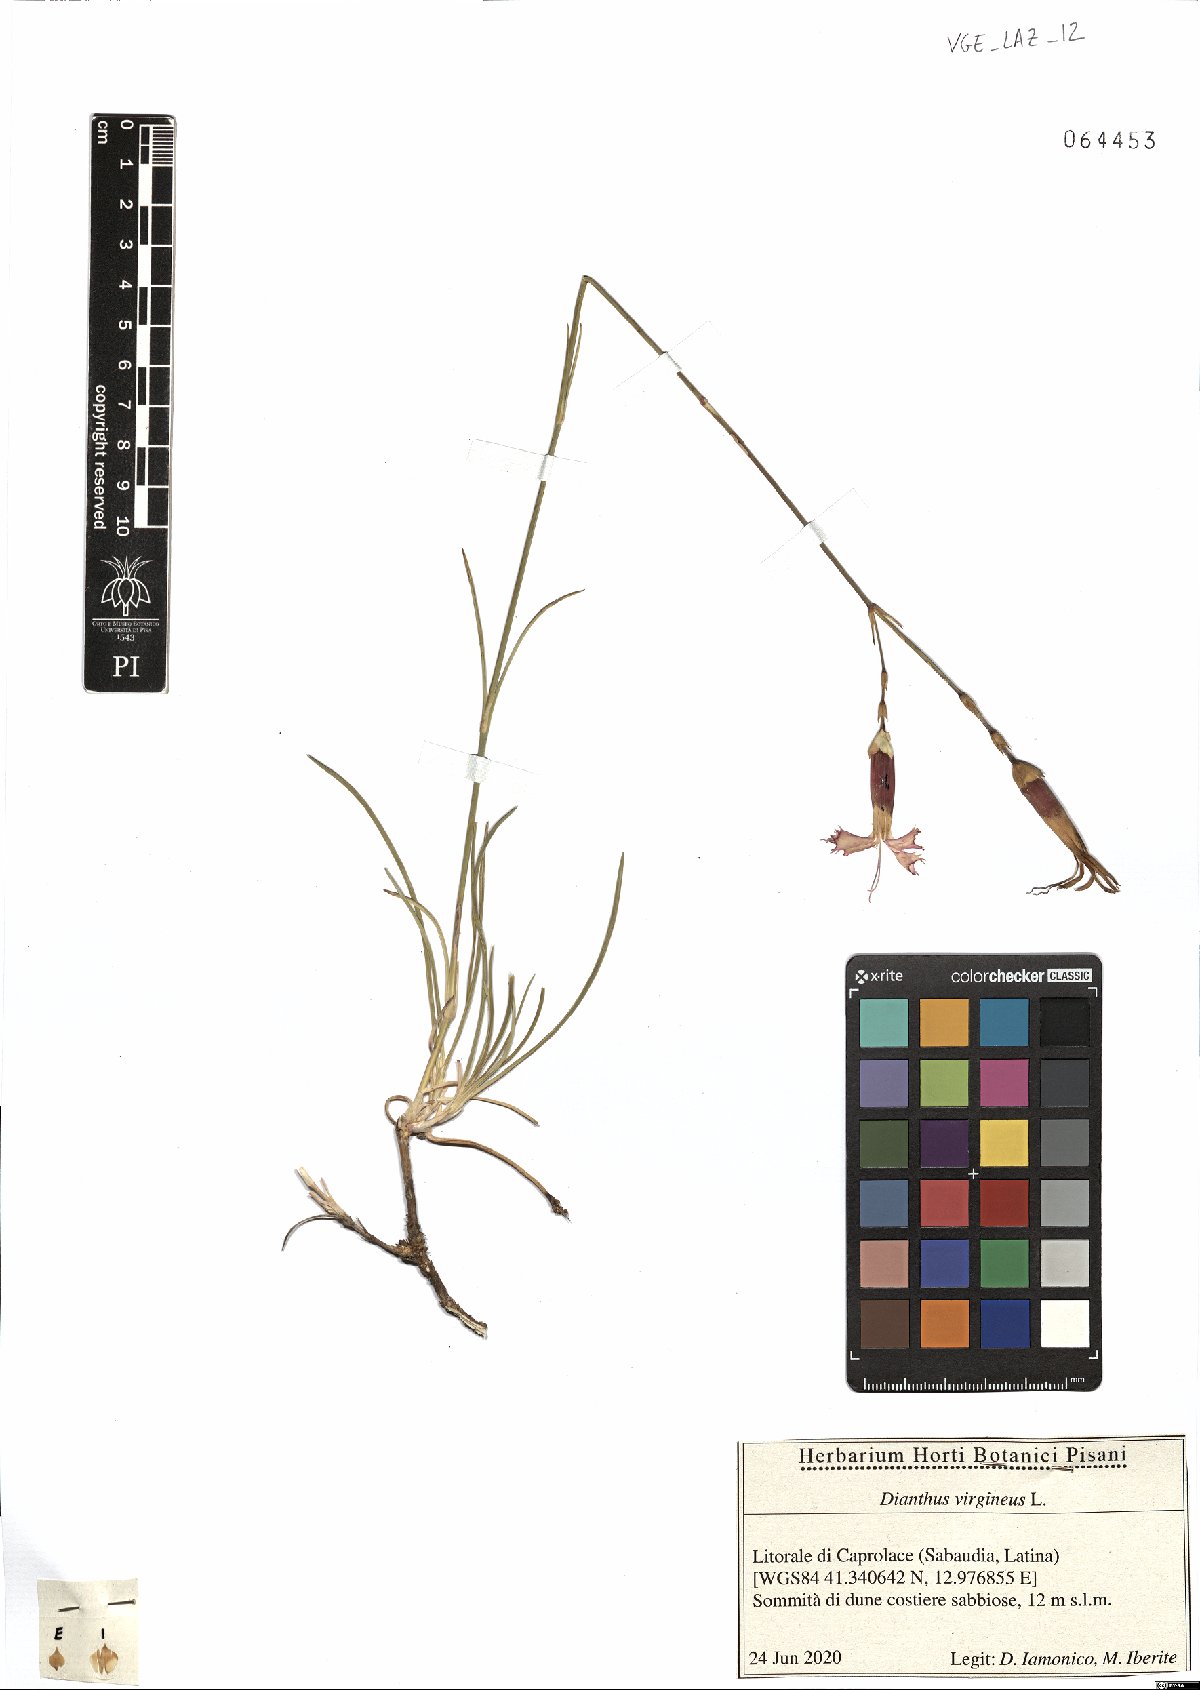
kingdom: Plantae
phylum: Tracheophyta
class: Magnoliopsida
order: Caryophyllales
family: Caryophyllaceae
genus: Dianthus
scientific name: Dianthus virgineus
